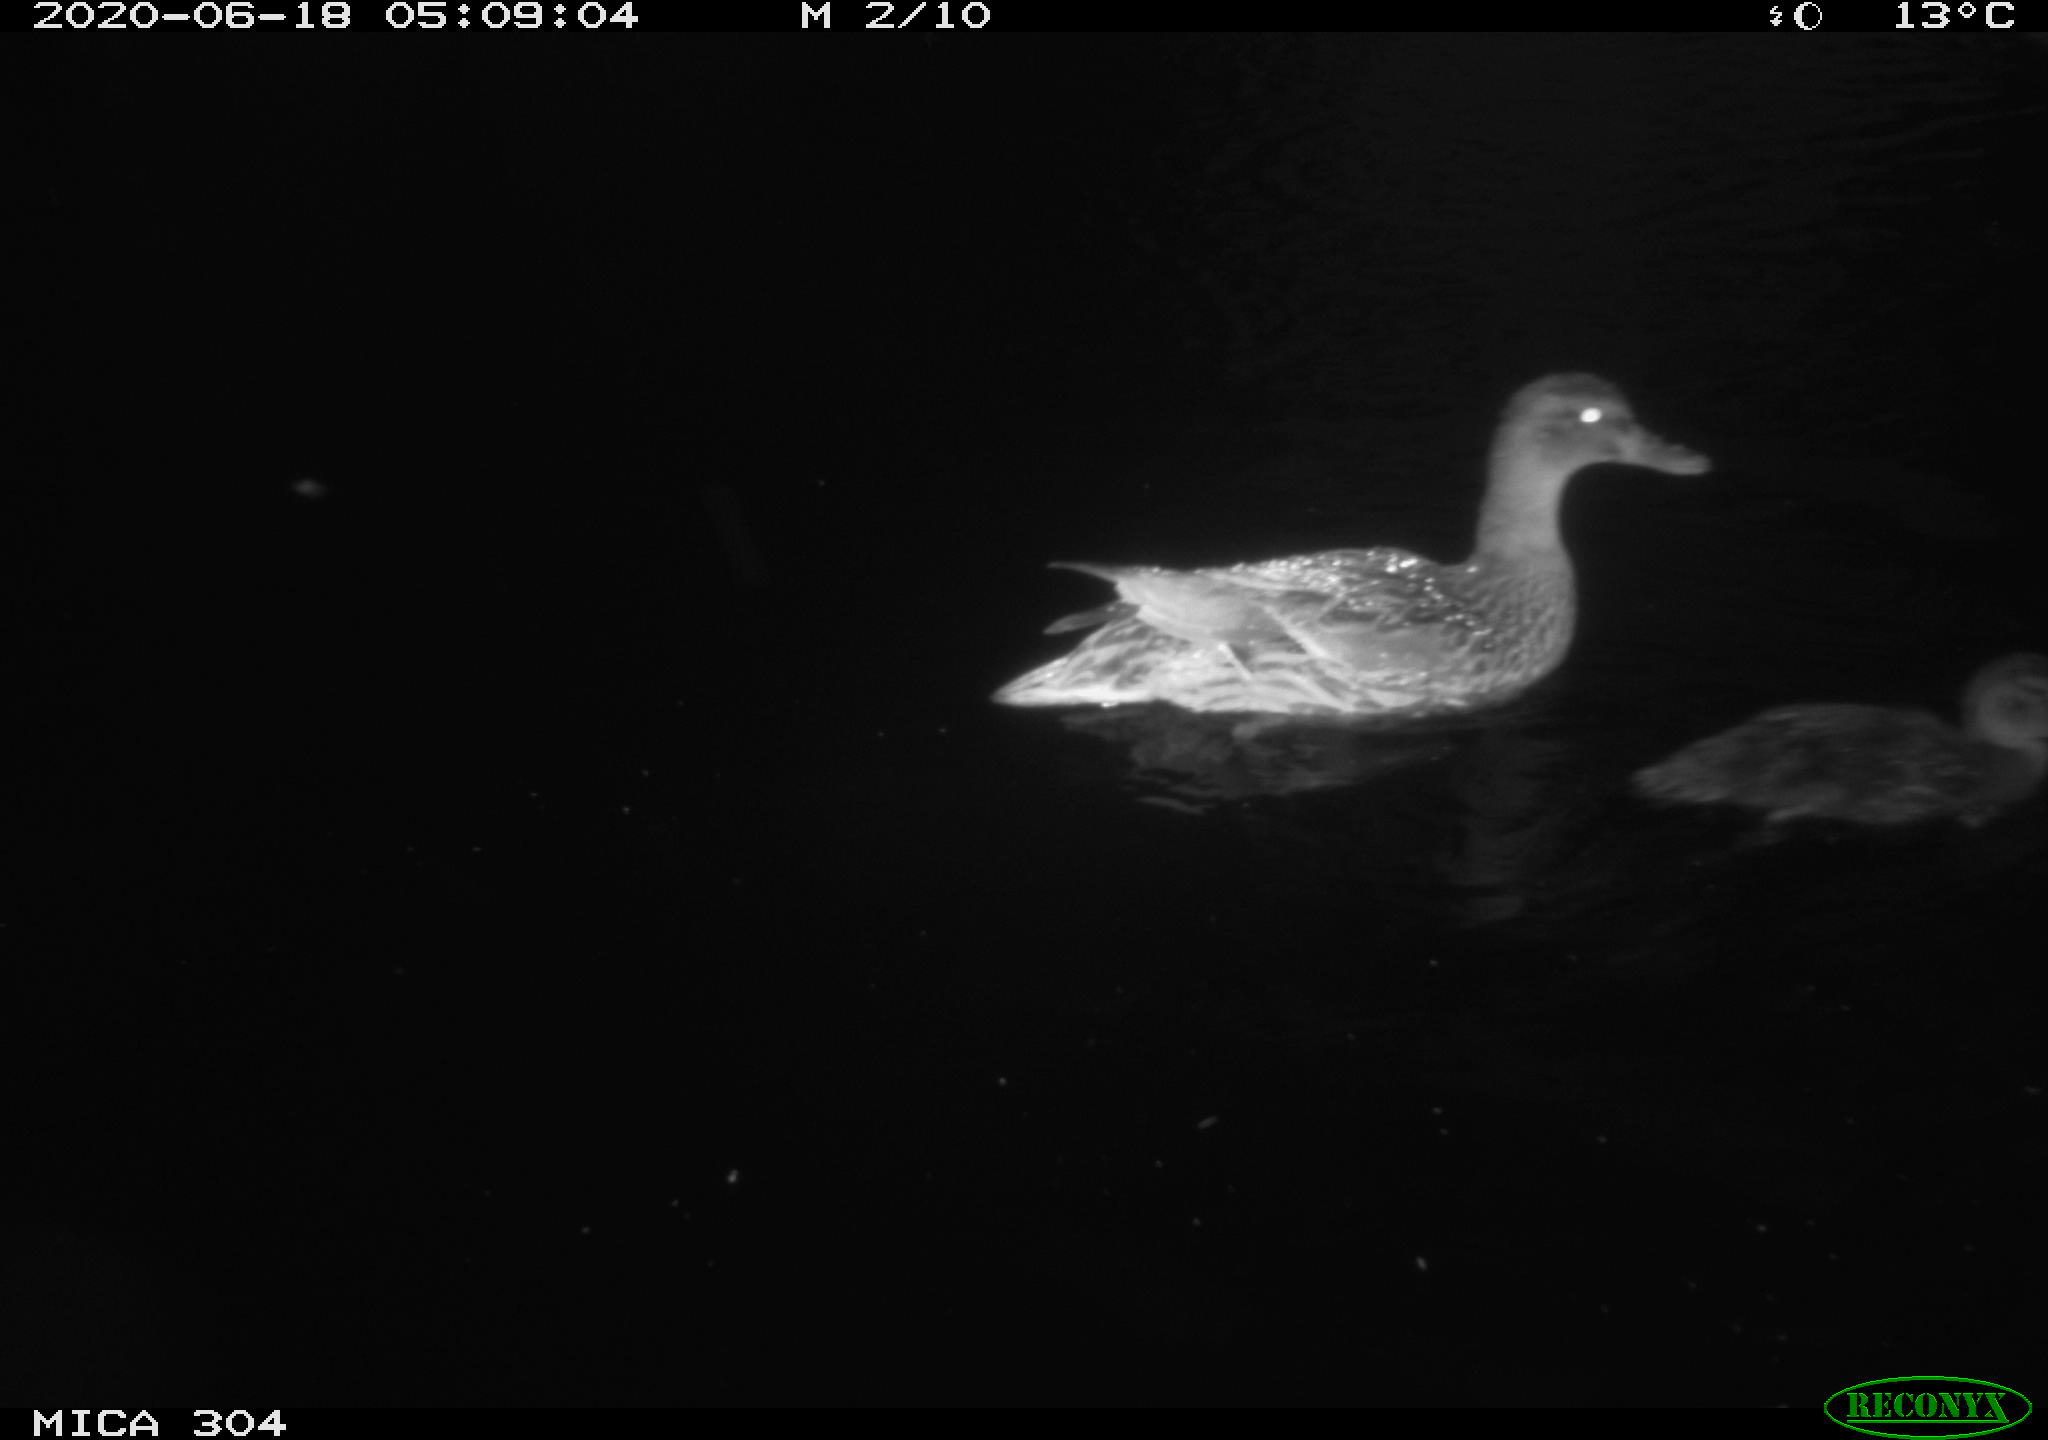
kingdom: Animalia
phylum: Chordata
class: Aves
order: Anseriformes
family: Anatidae
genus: Anas
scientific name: Anas platyrhynchos
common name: Mallard
